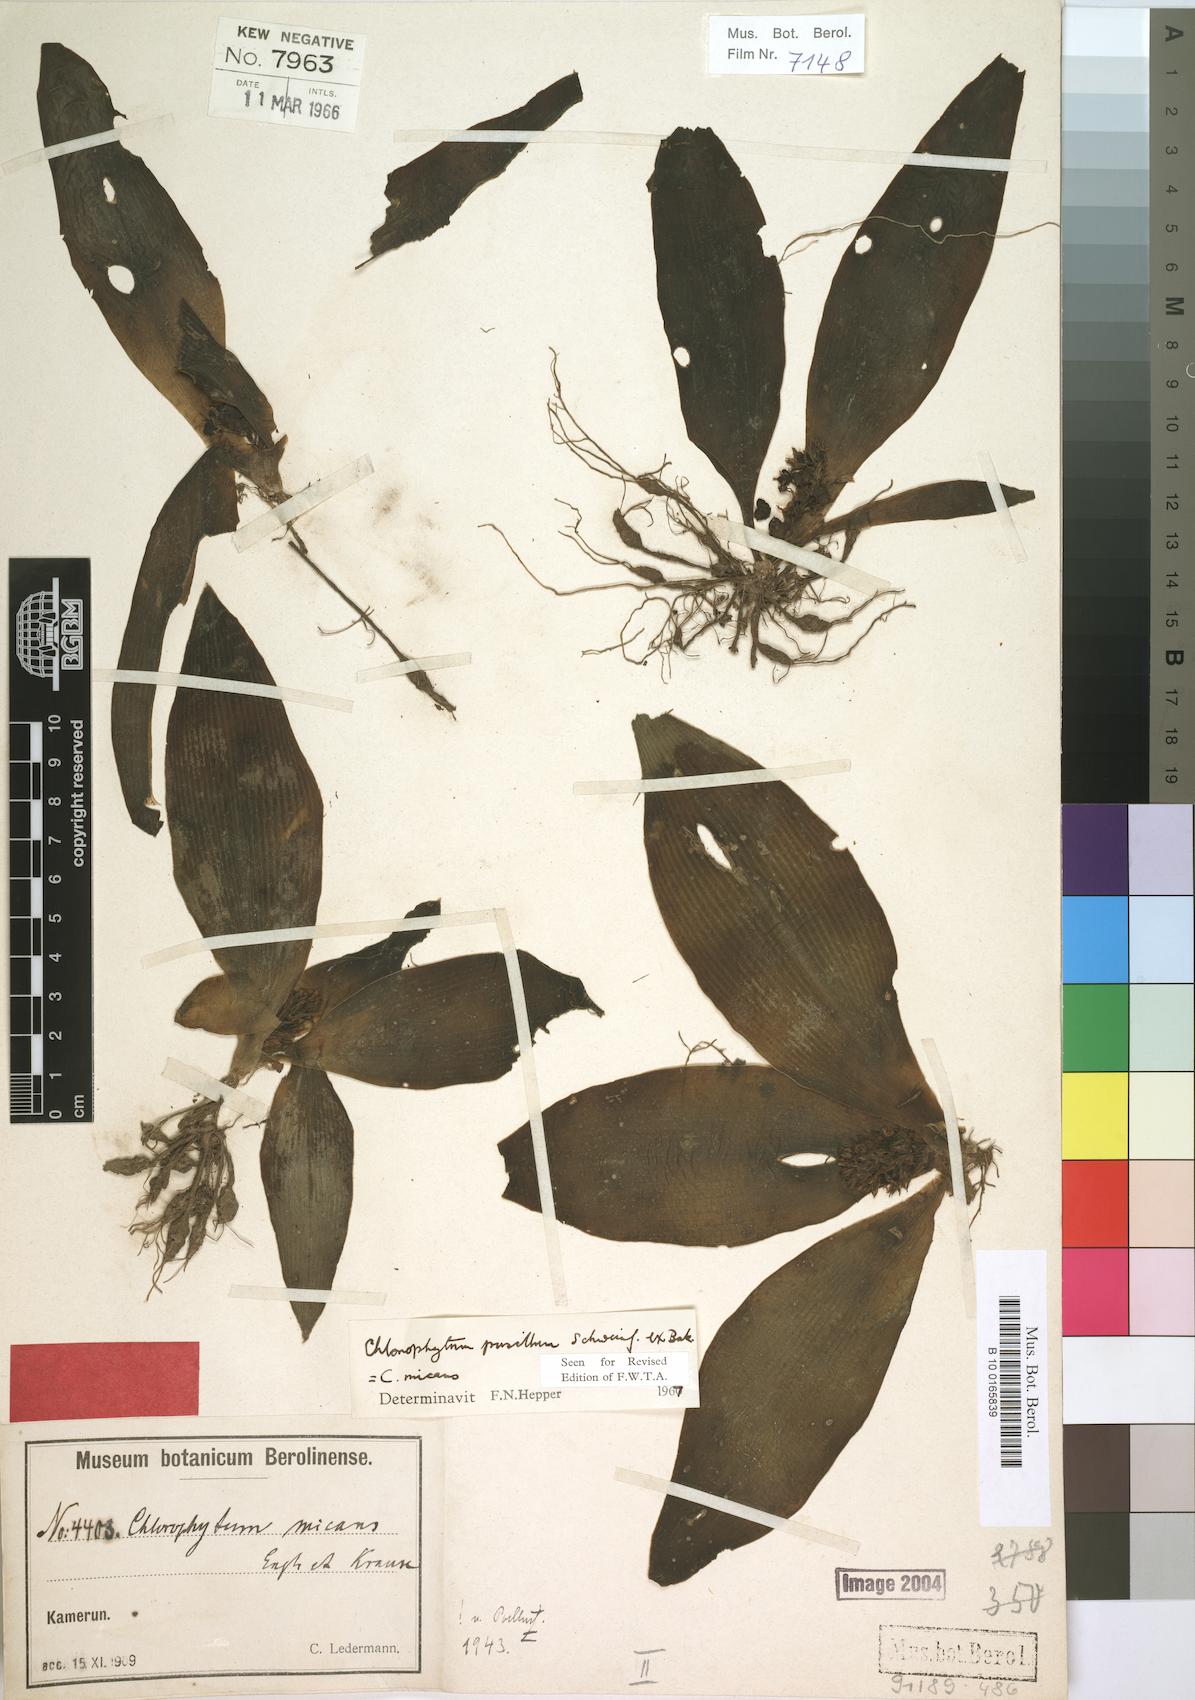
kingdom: Plantae
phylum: Tracheophyta
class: Liliopsida
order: Asparagales
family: Asparagaceae
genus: Chlorophytum
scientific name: Chlorophytum pusillum
